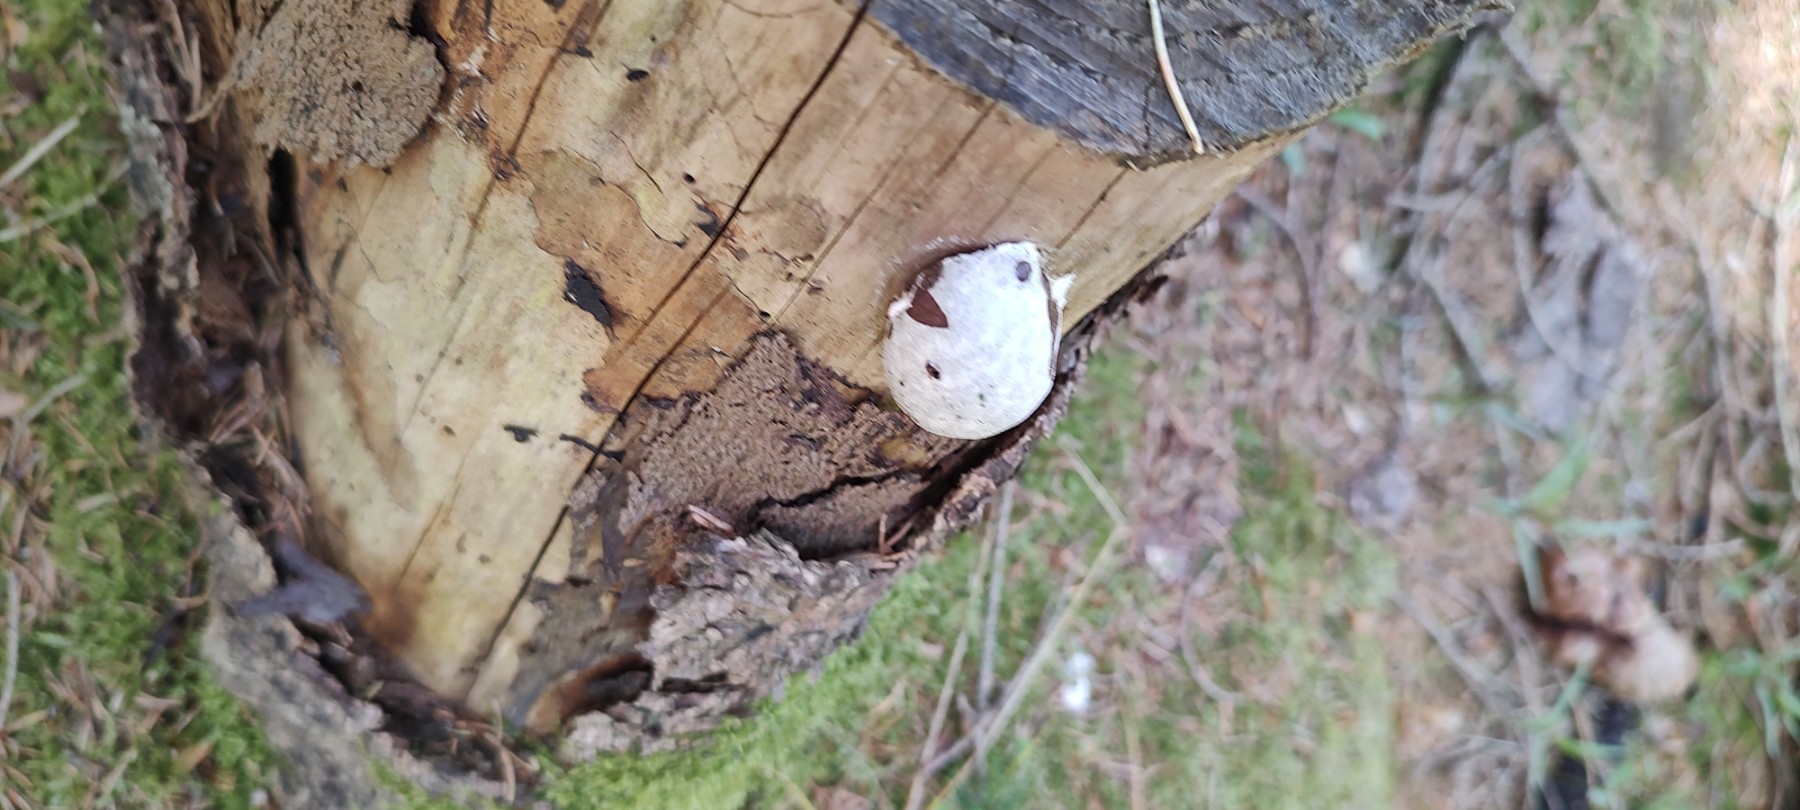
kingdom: Protozoa
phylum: Mycetozoa
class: Myxomycetes
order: Cribrariales
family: Tubiferaceae
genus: Reticularia
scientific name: Reticularia lycoperdon
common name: skinnende støvpude
